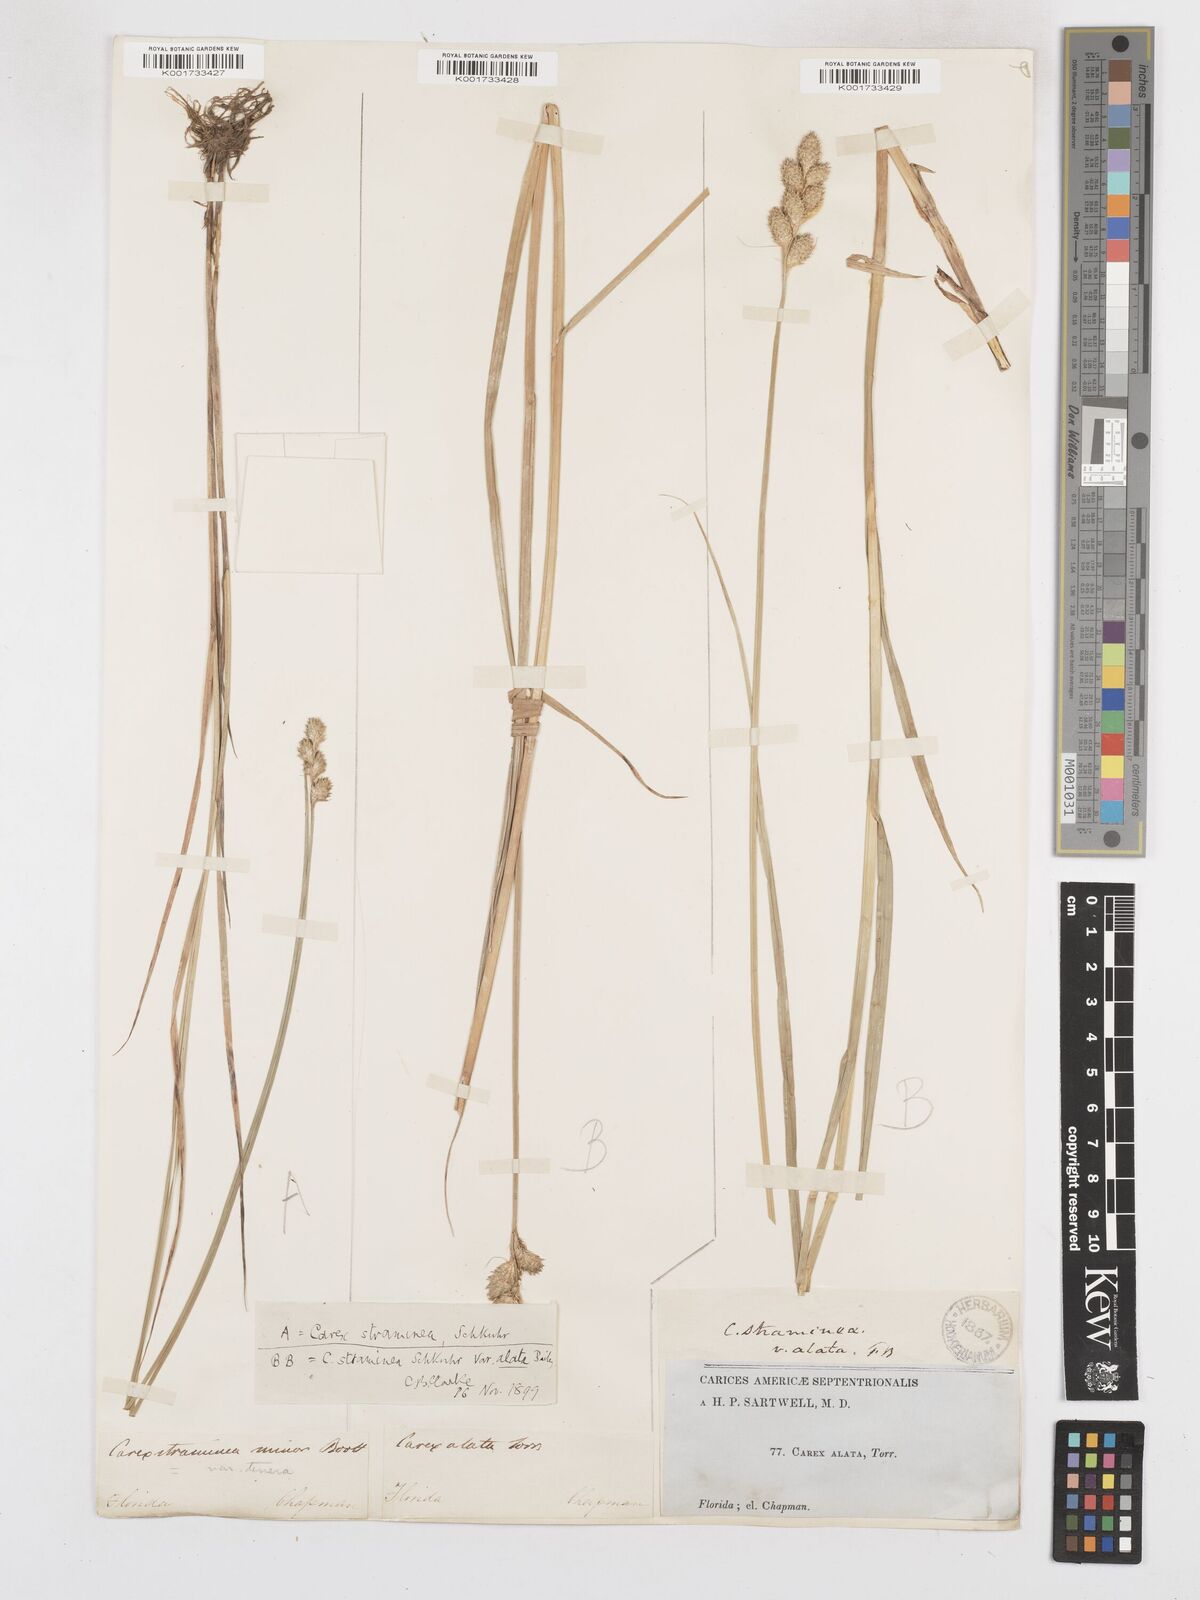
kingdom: Plantae
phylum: Tracheophyta
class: Liliopsida
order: Poales
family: Cyperaceae
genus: Carex
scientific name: Carex alata
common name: Broad-winged sedge
